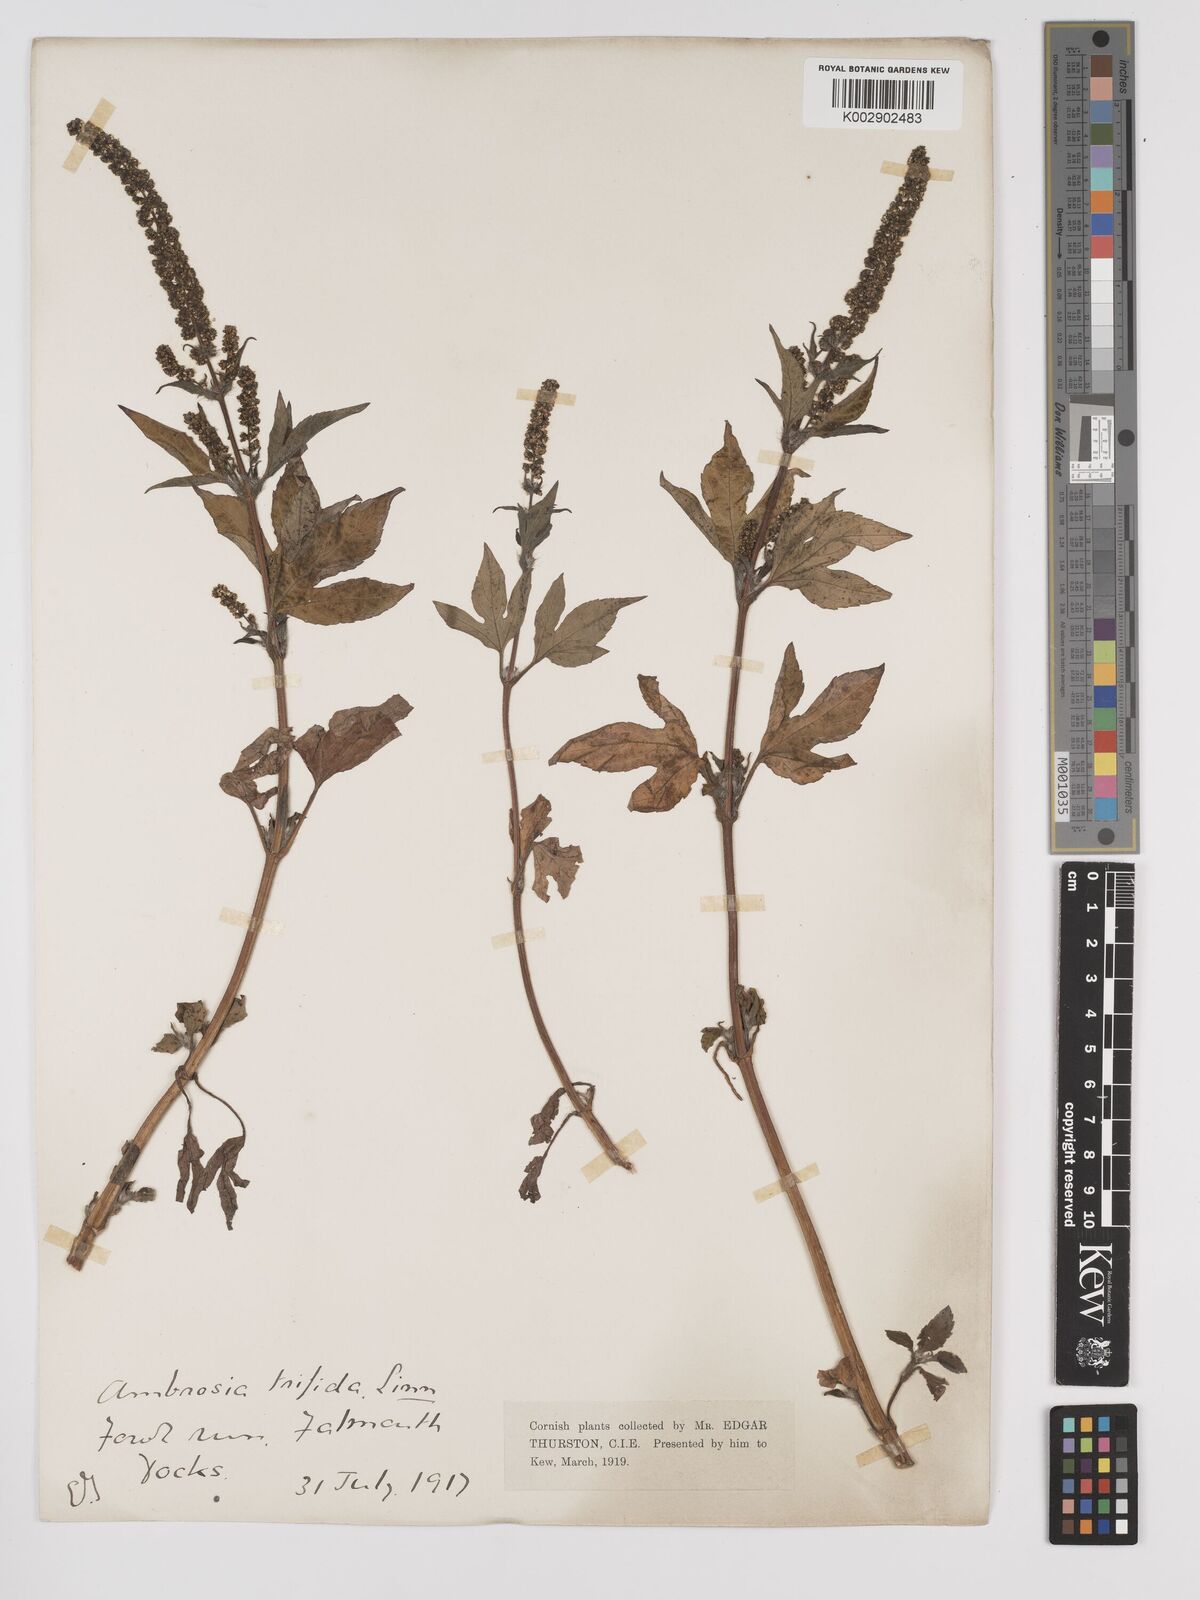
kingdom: Plantae
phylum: Tracheophyta
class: Magnoliopsida
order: Asterales
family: Asteraceae
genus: Ambrosia
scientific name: Ambrosia trifida
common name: Giant ragweed
